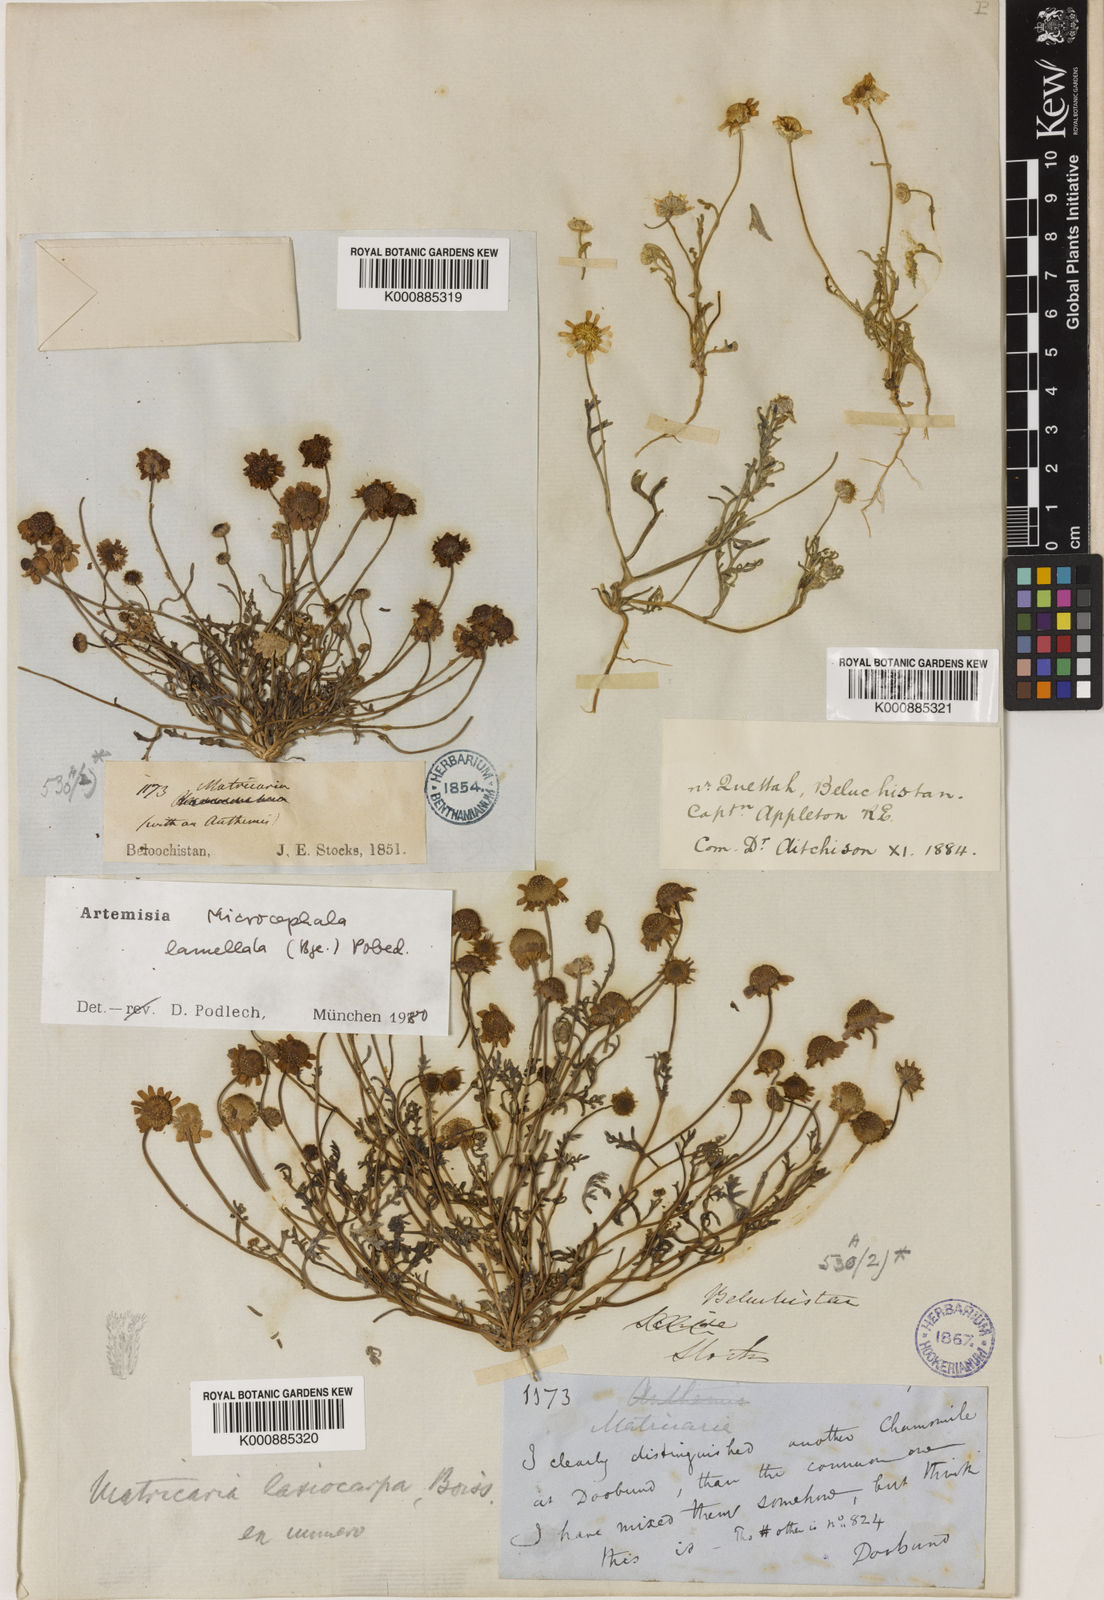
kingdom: Plantae
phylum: Tracheophyta
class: Magnoliopsida
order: Asterales
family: Asteraceae
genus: Microcephala
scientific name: Microcephala lamellata
